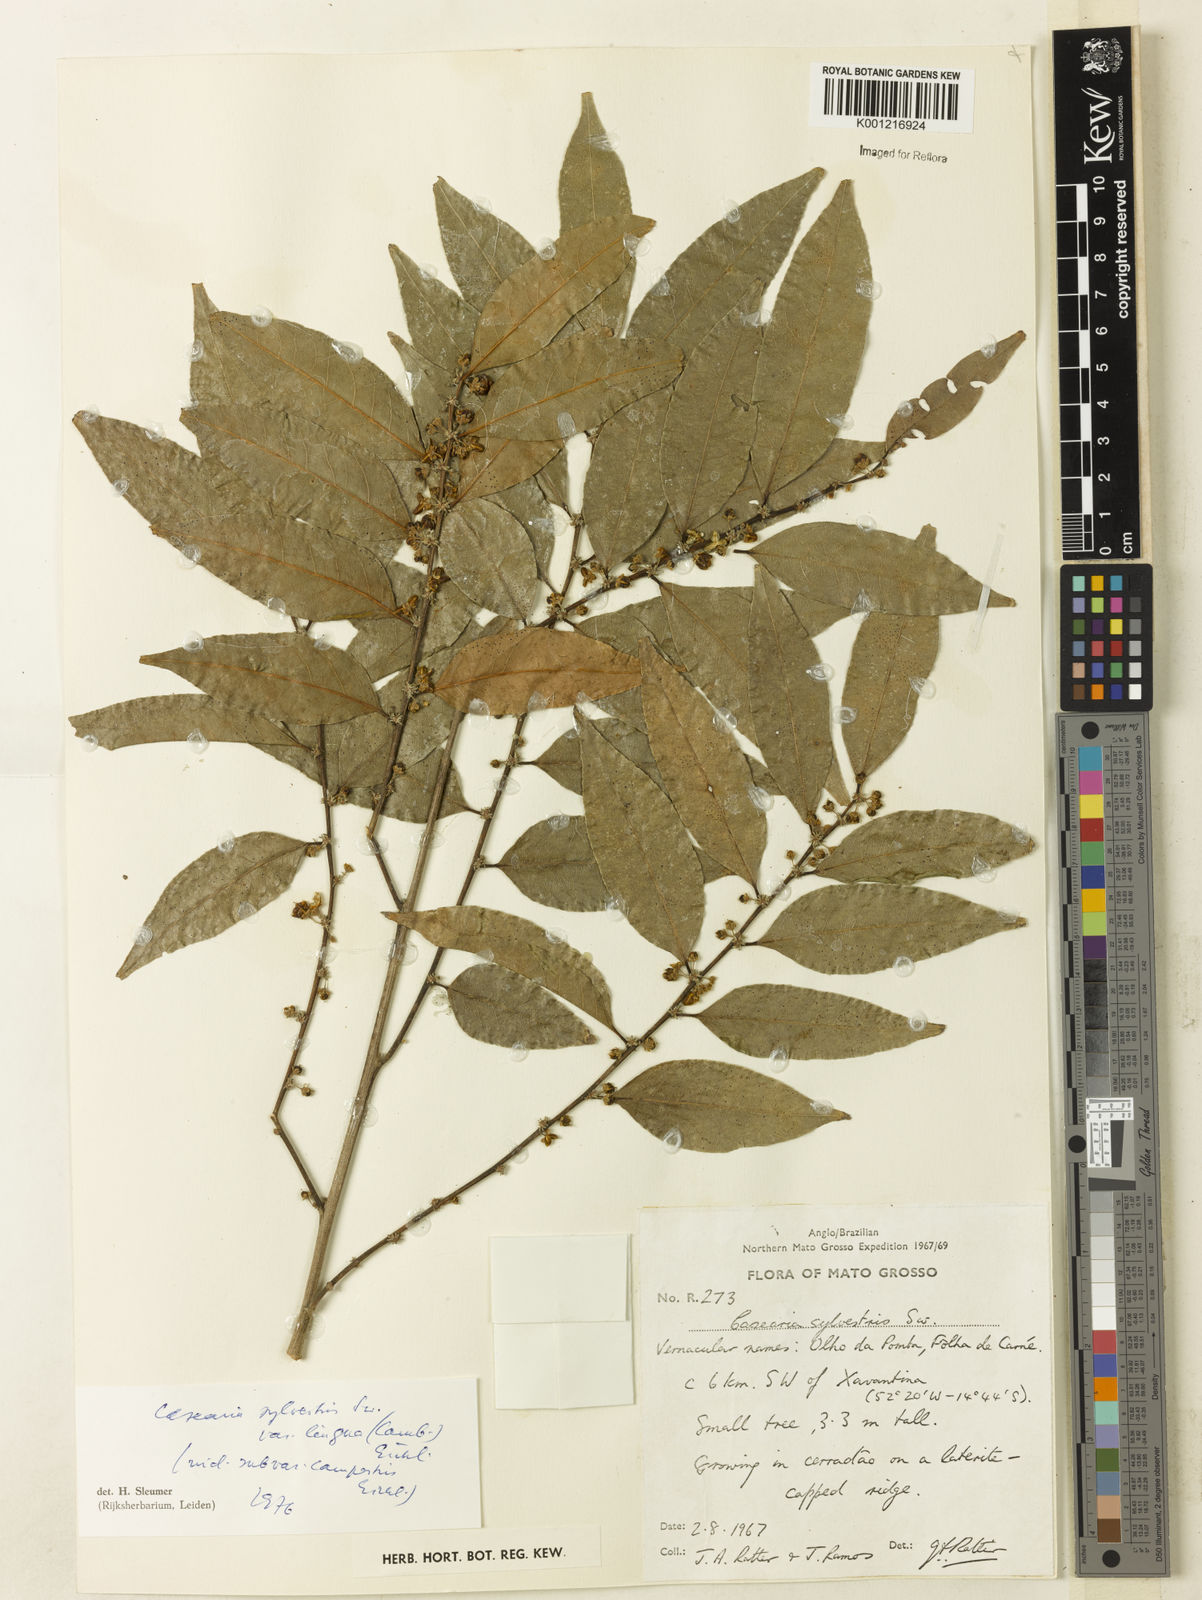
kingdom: Plantae
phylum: Tracheophyta
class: Magnoliopsida
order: Malpighiales
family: Salicaceae
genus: Casearia
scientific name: Casearia sylvestris
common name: Wild sage
